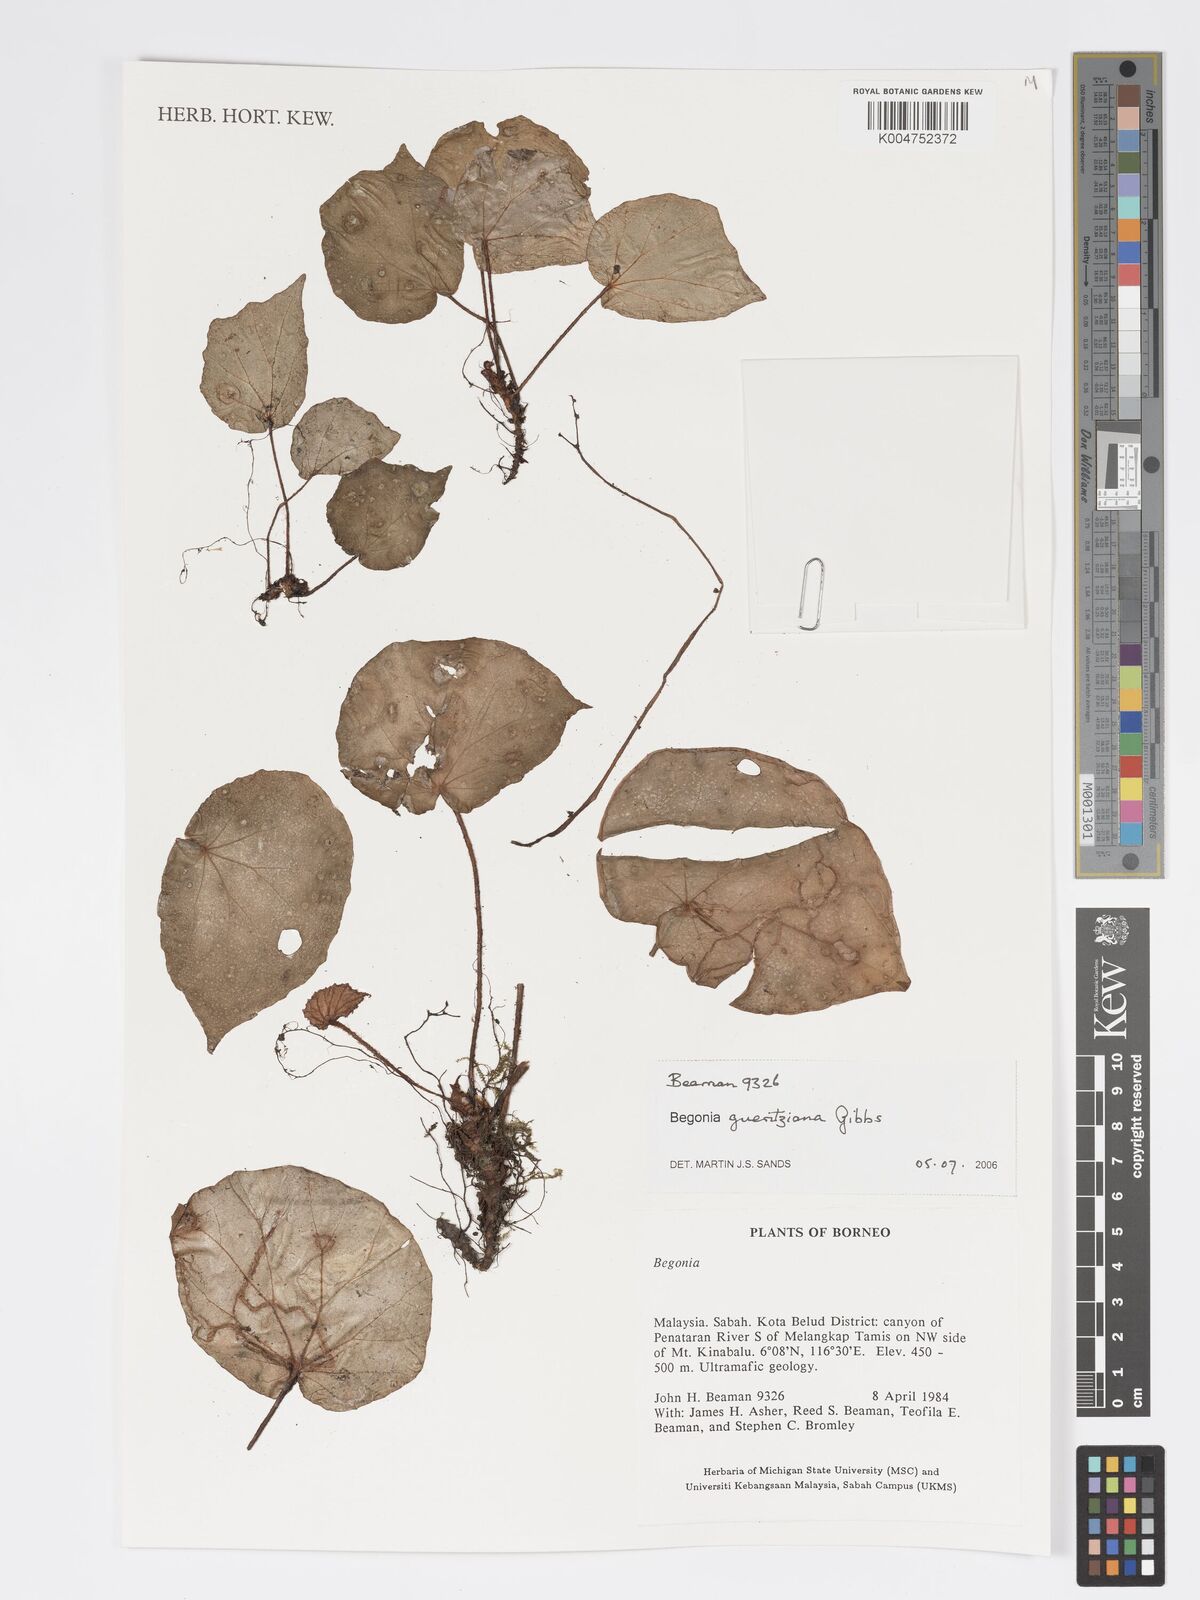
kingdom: Plantae
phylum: Tracheophyta
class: Magnoliopsida
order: Cucurbitales
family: Begoniaceae
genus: Begonia
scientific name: Begonia gueritziana
